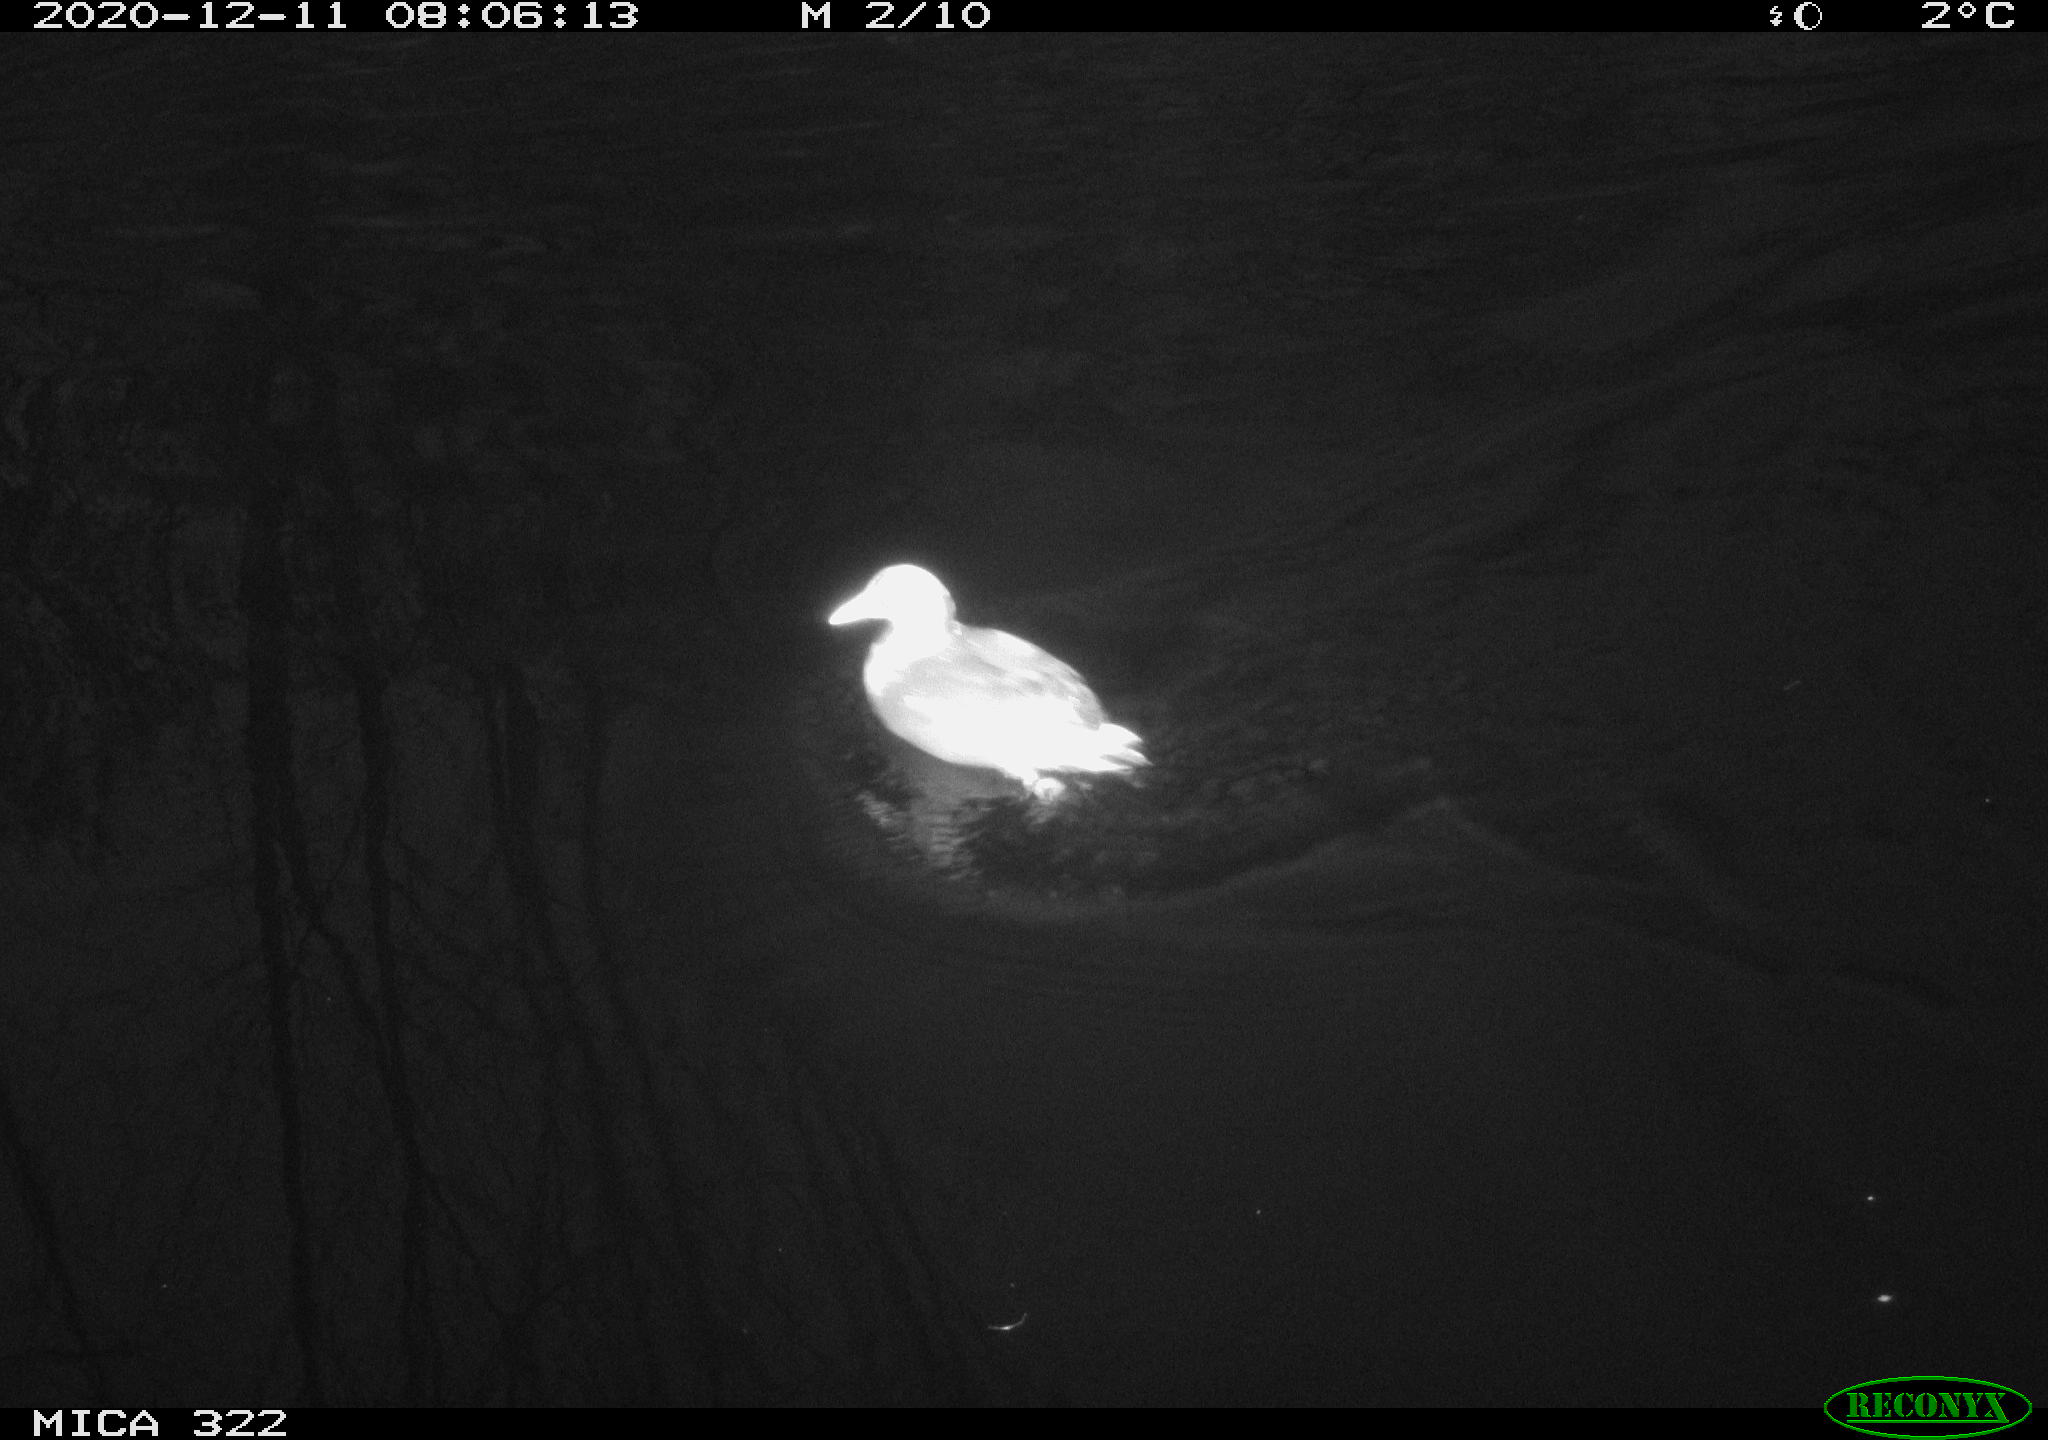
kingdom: Animalia
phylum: Chordata
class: Aves
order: Gruiformes
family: Rallidae
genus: Gallinula
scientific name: Gallinula chloropus
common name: Common moorhen
